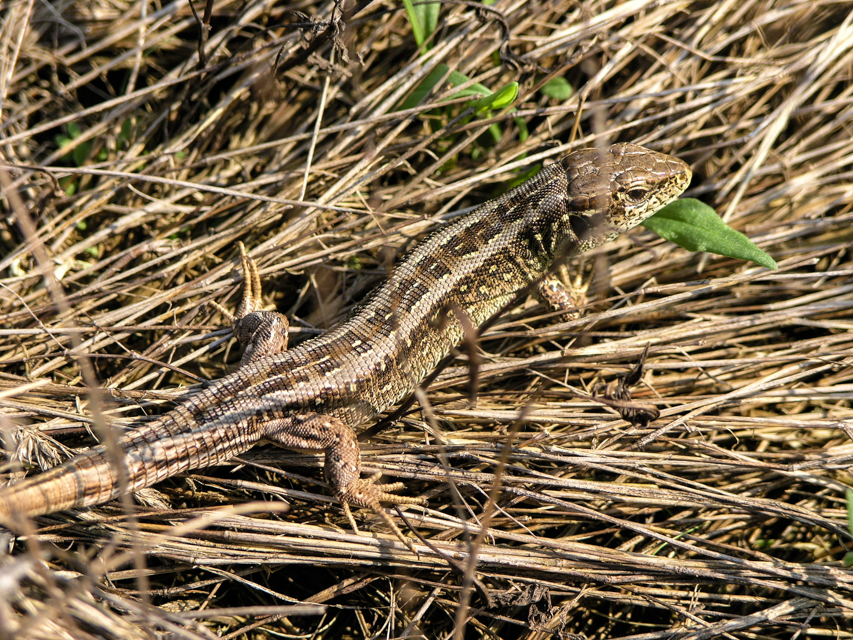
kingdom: Animalia
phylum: Chordata
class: Squamata
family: Lacertidae
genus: Lacerta
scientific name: Lacerta agilis
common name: Sand lizard
